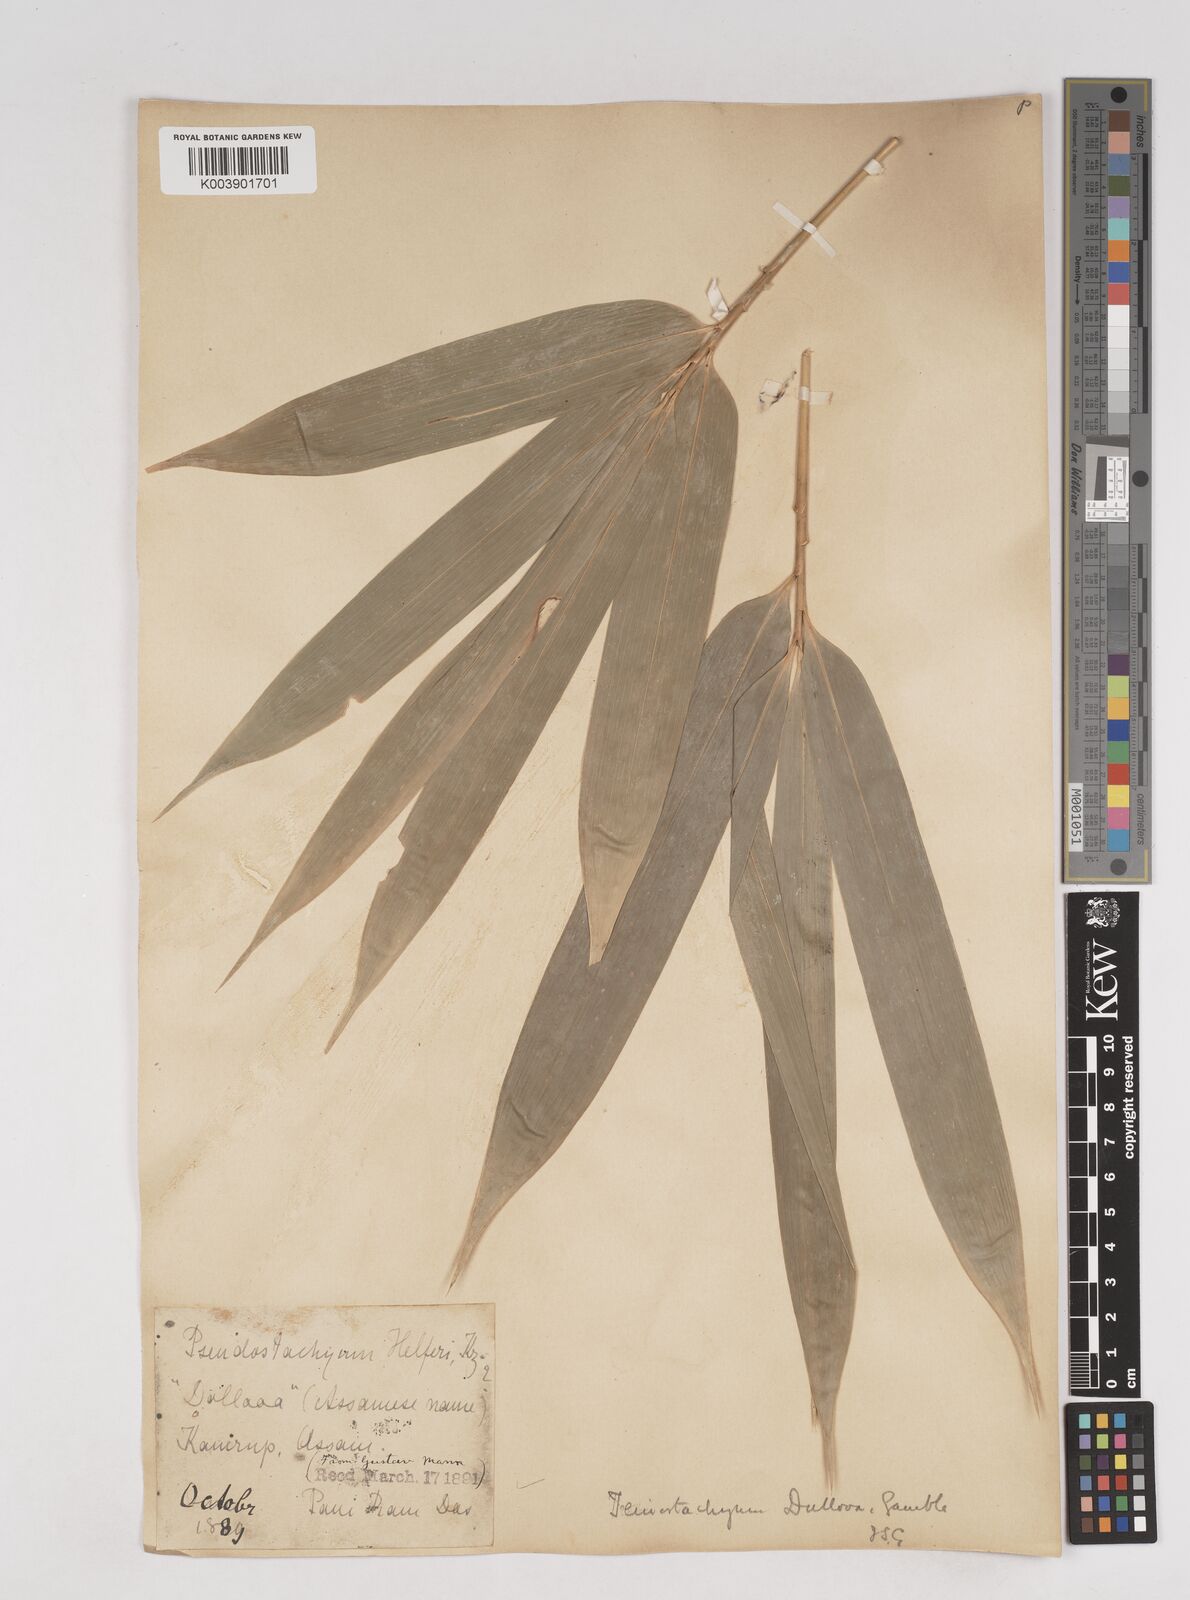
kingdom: Plantae
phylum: Tracheophyta
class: Liliopsida
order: Poales
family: Poaceae
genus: Schizostachyum
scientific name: Schizostachyum dullooa
